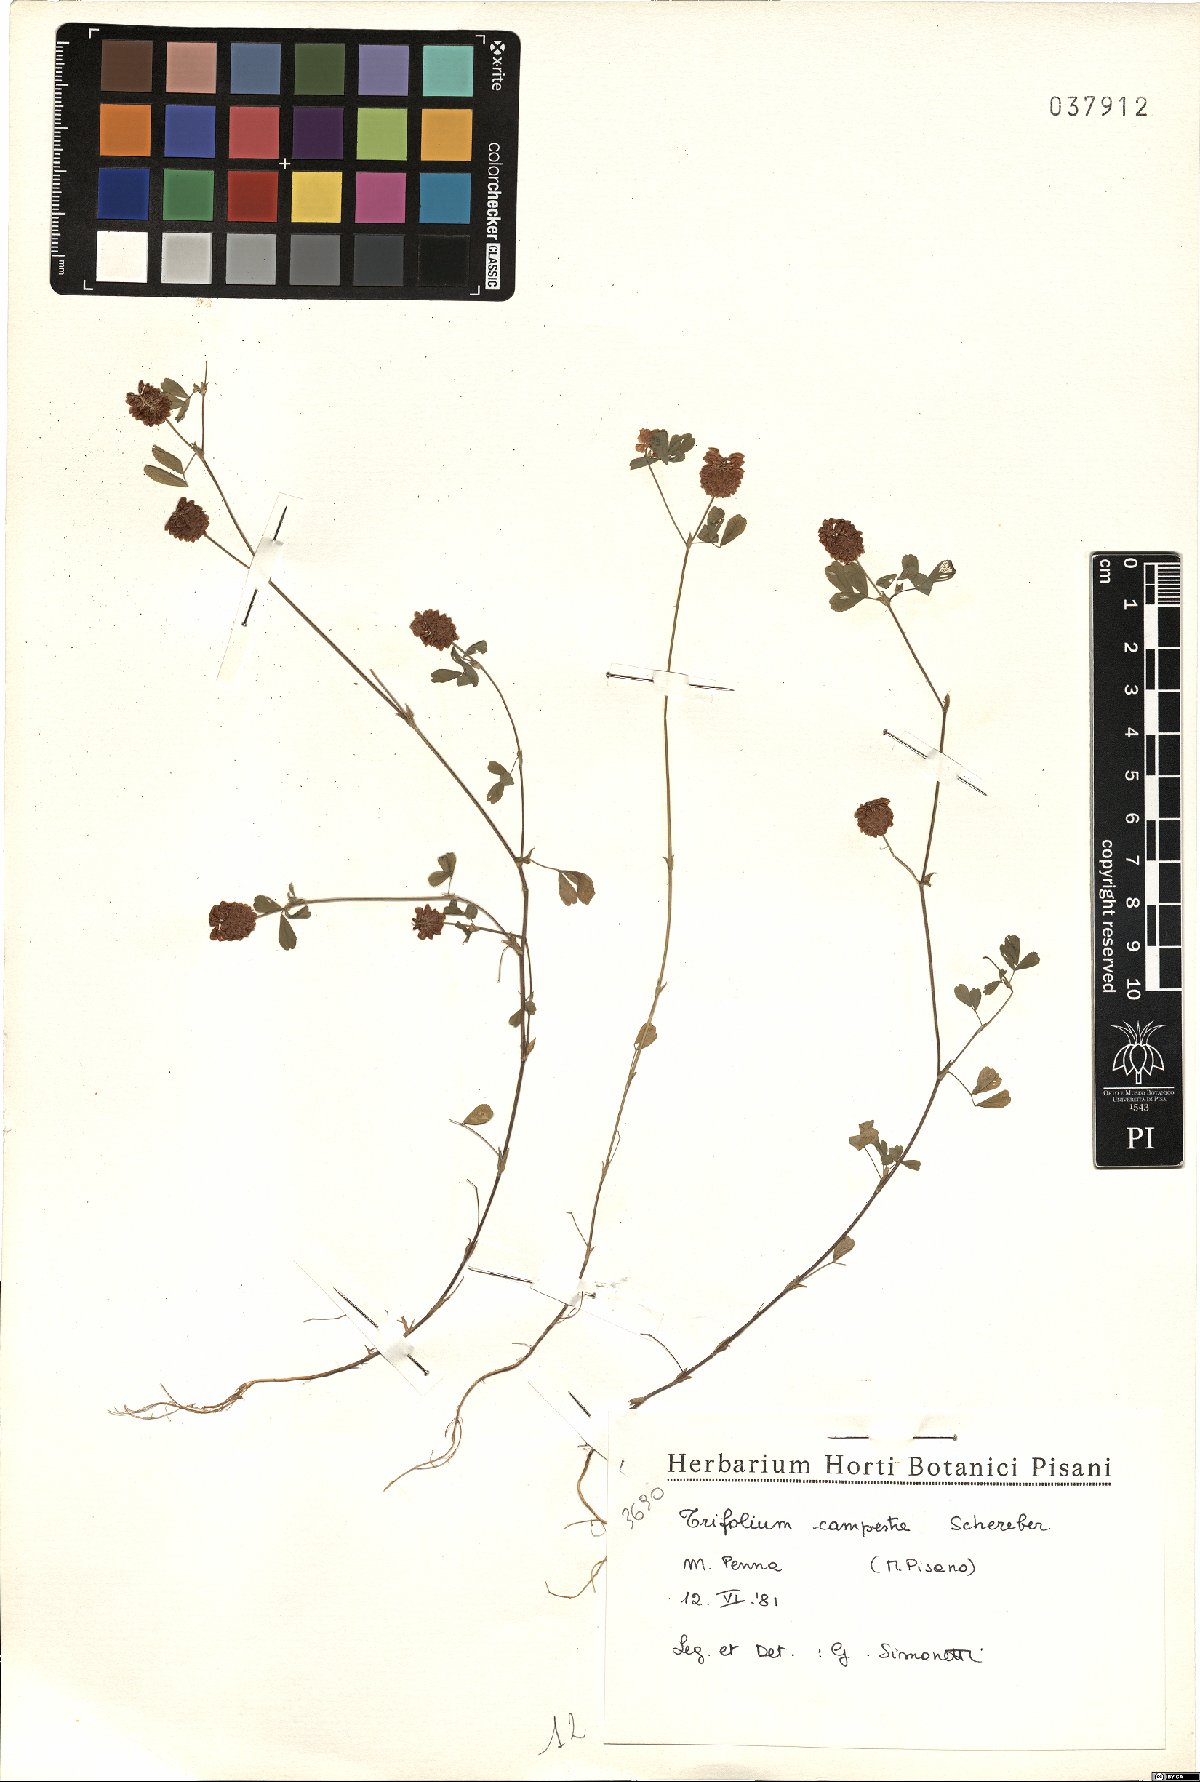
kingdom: Plantae
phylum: Tracheophyta
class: Magnoliopsida
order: Fabales
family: Fabaceae
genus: Trifolium
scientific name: Trifolium campestre
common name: Field clover
